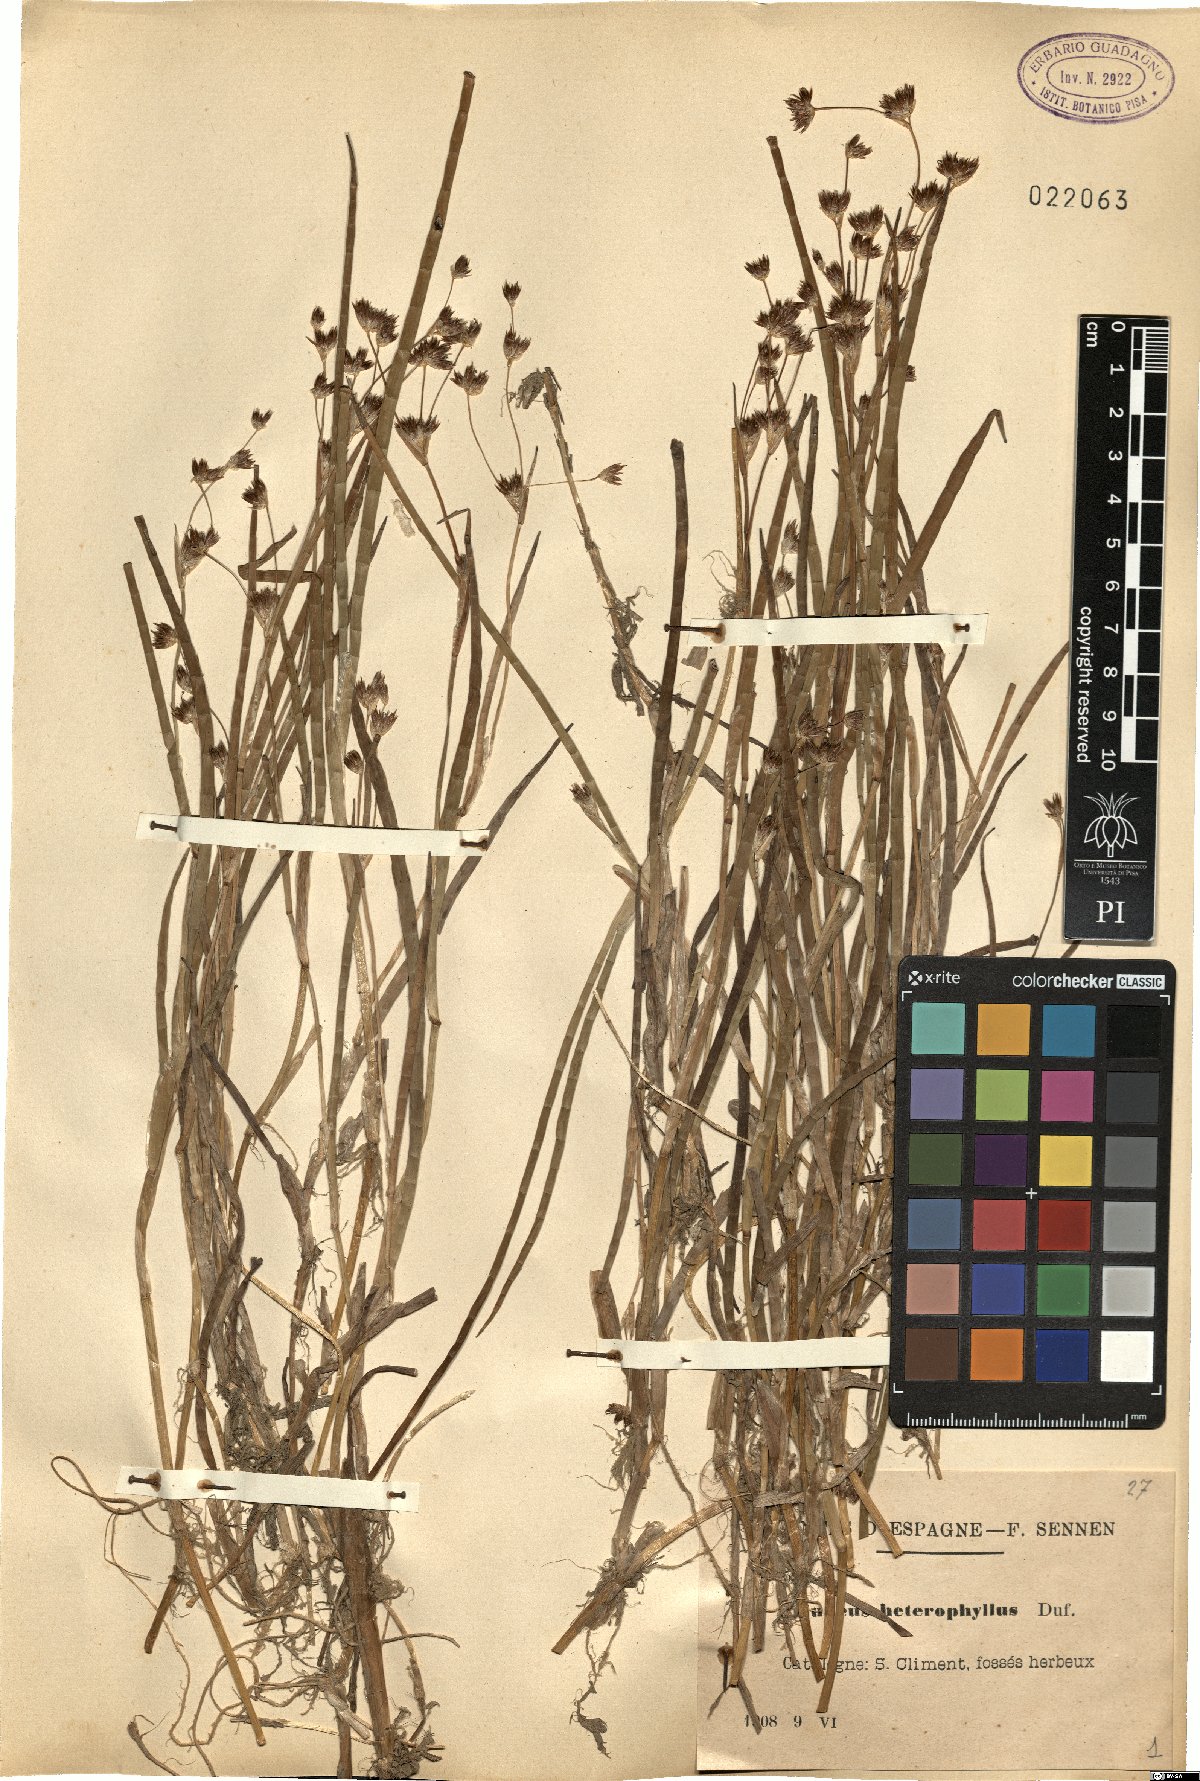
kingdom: Plantae
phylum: Tracheophyta
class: Liliopsida
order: Poales
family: Juncaceae
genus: Juncus
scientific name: Juncus heterophyllus
